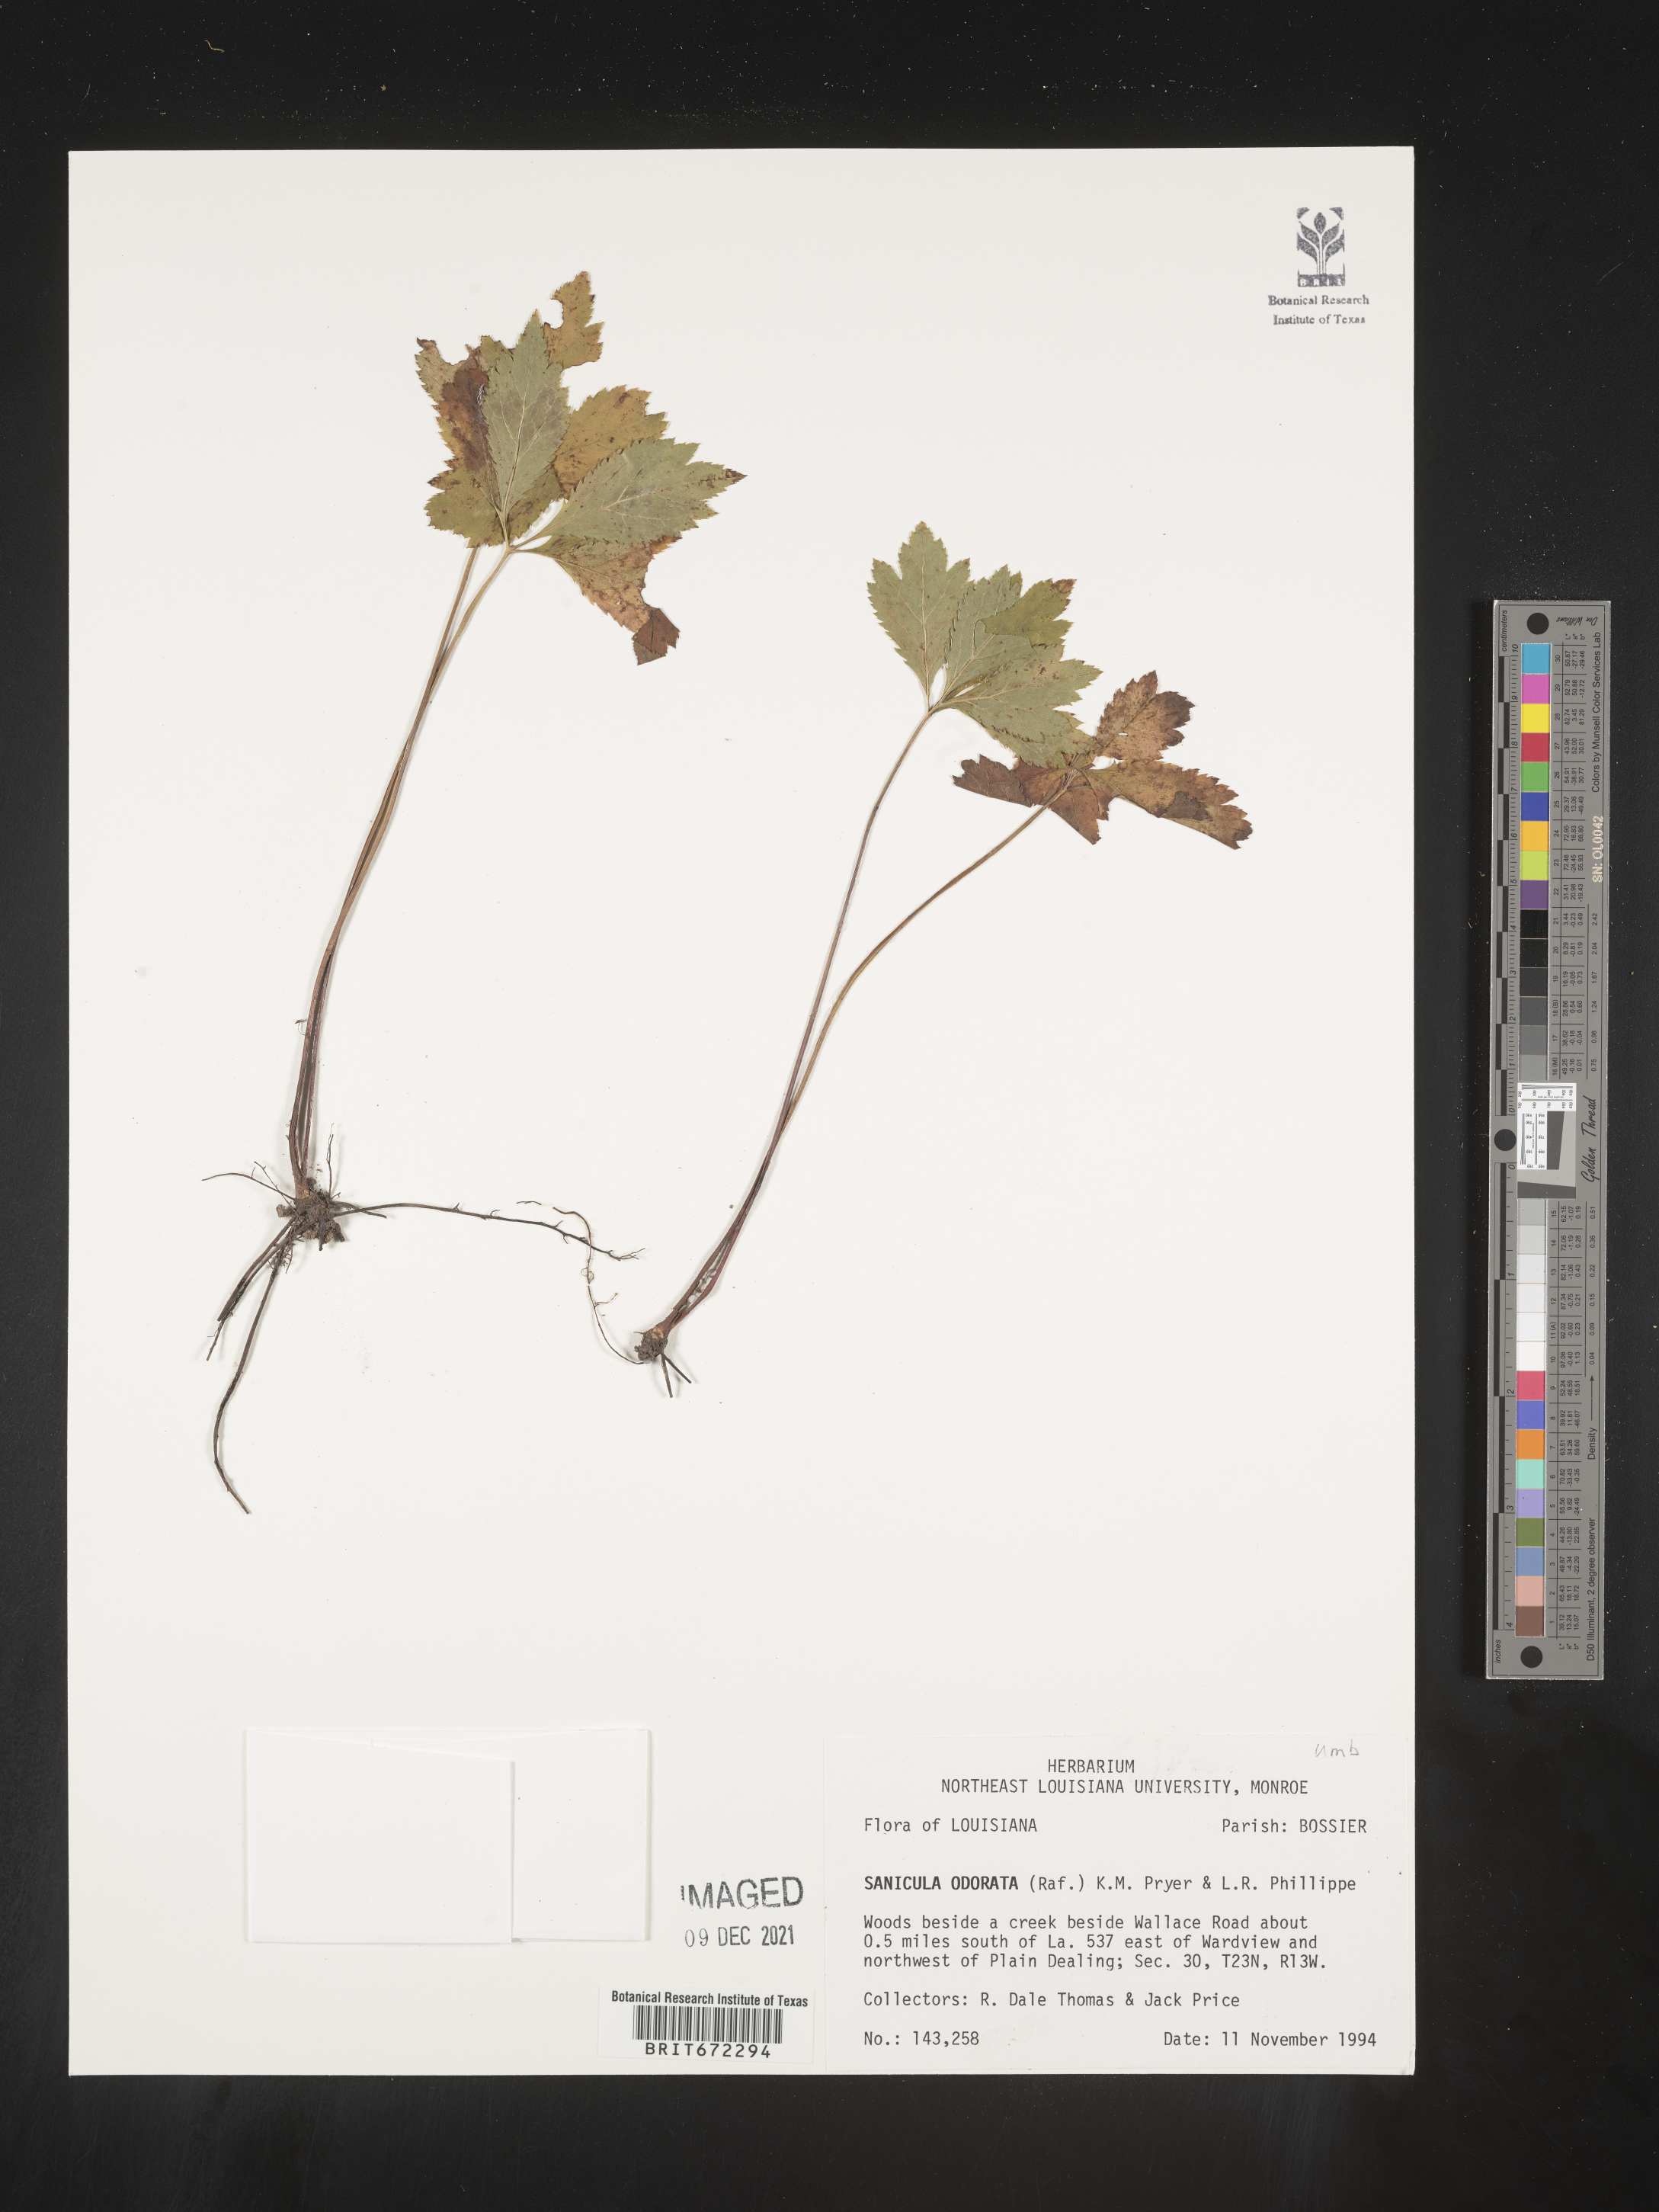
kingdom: Plantae
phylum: Tracheophyta
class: Magnoliopsida
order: Apiales
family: Apiaceae
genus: Sanicula
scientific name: Sanicula
